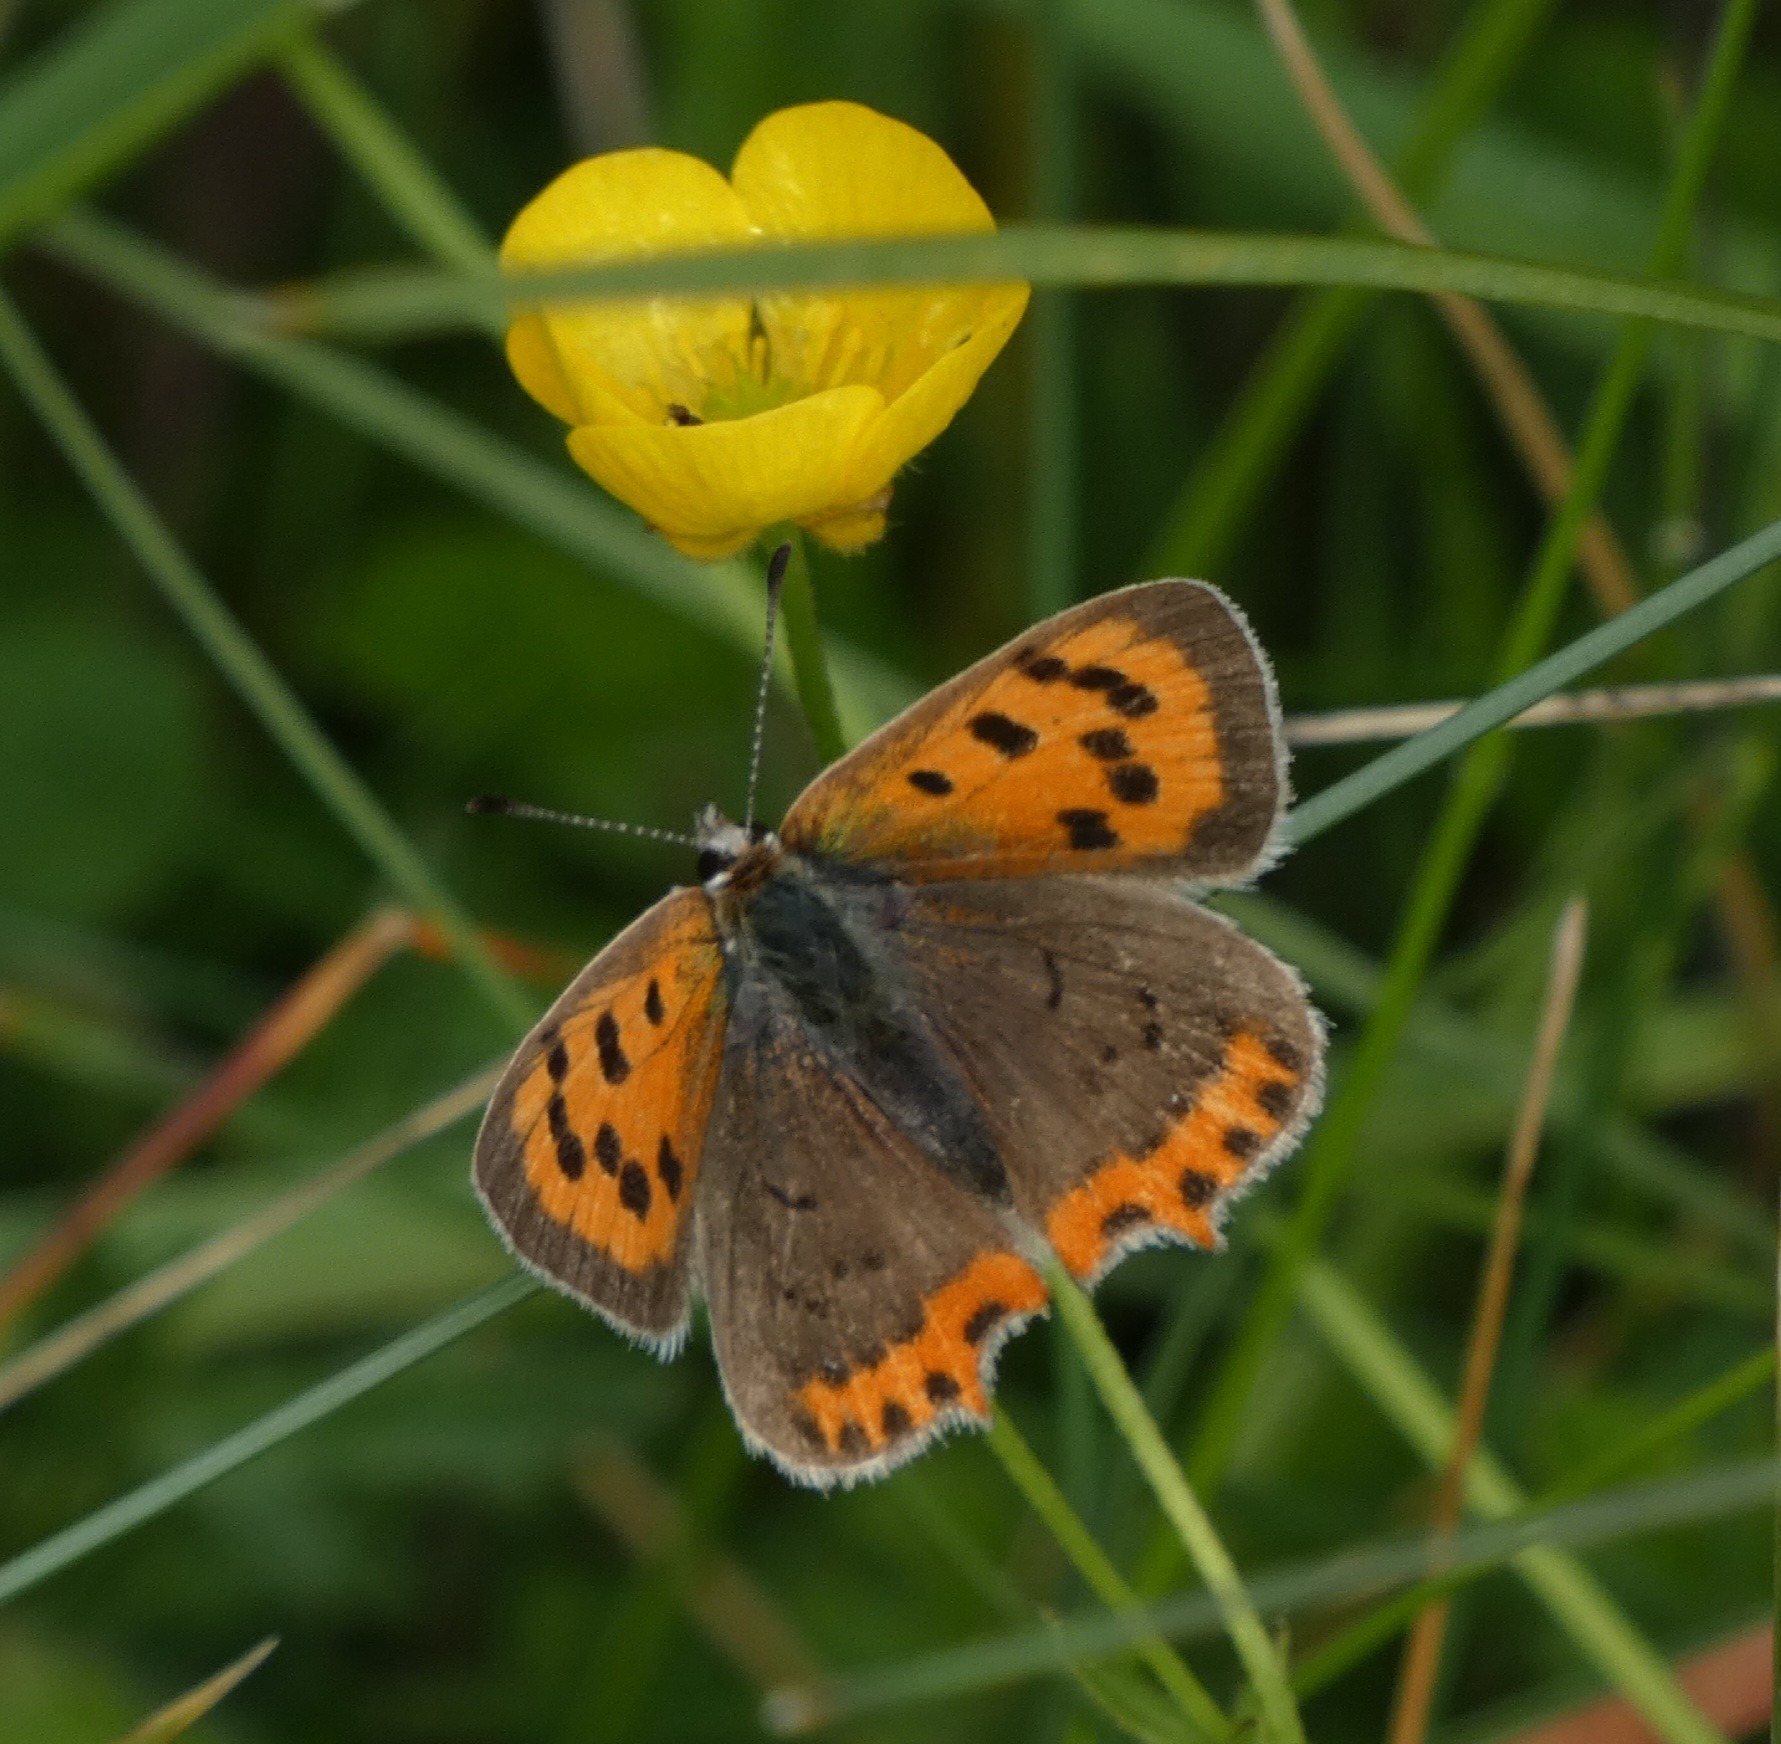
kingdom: Animalia
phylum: Arthropoda
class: Insecta
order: Lepidoptera
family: Lycaenidae
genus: Lycaena
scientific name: Lycaena phlaeas
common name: Lille ildfugl
